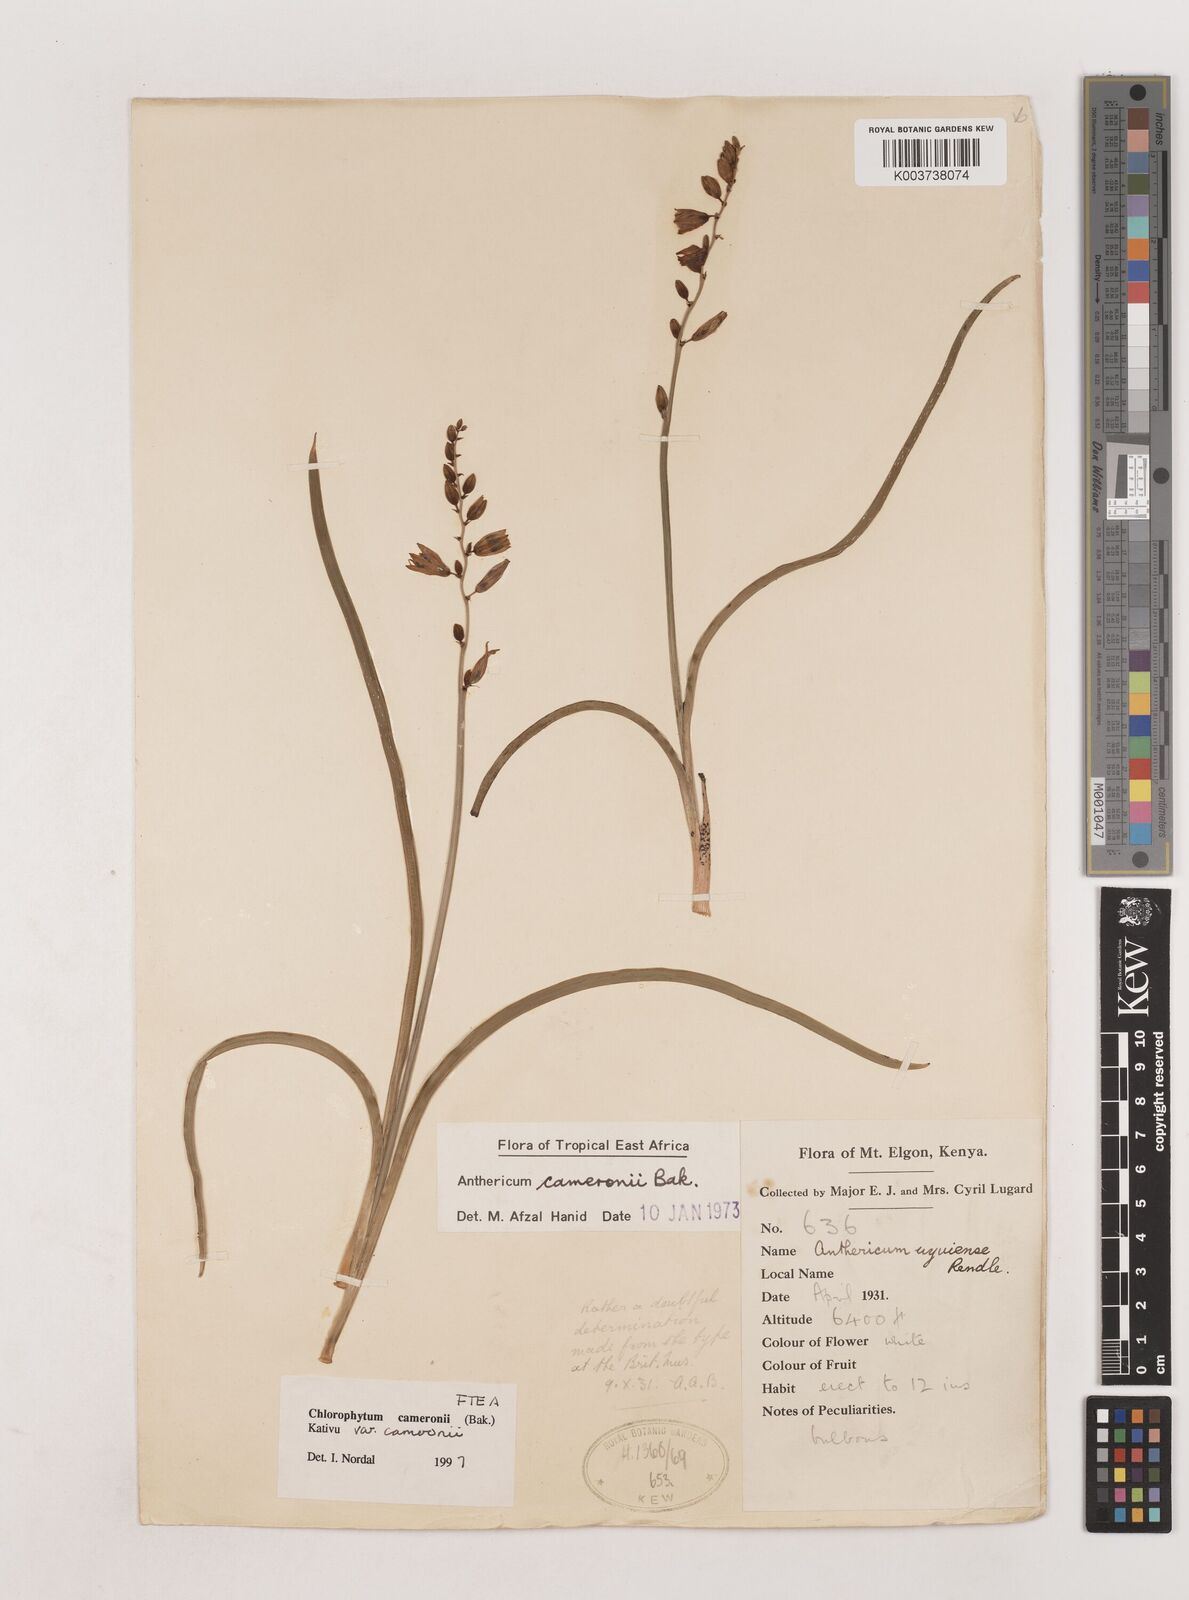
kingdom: Plantae
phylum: Tracheophyta
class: Liliopsida
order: Asparagales
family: Asparagaceae
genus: Chlorophytum
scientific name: Chlorophytum cameronii
